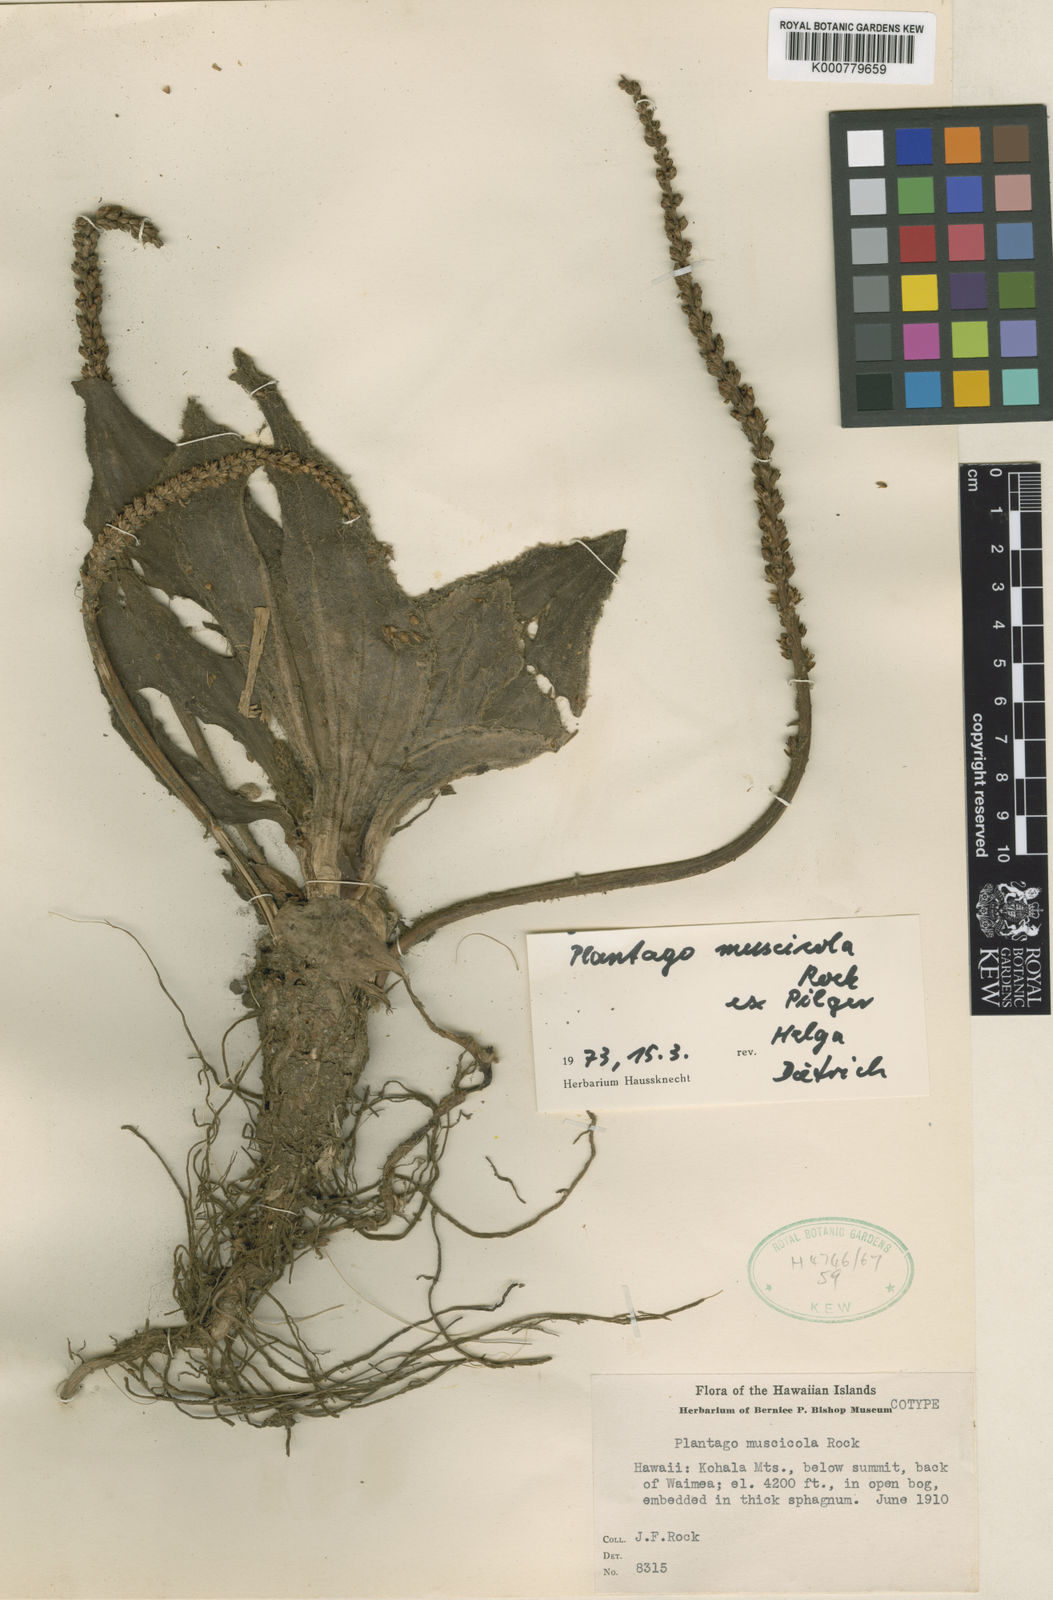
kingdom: Plantae
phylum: Tracheophyta
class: Magnoliopsida
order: Lamiales
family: Plantaginaceae
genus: Plantago
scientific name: Plantago
